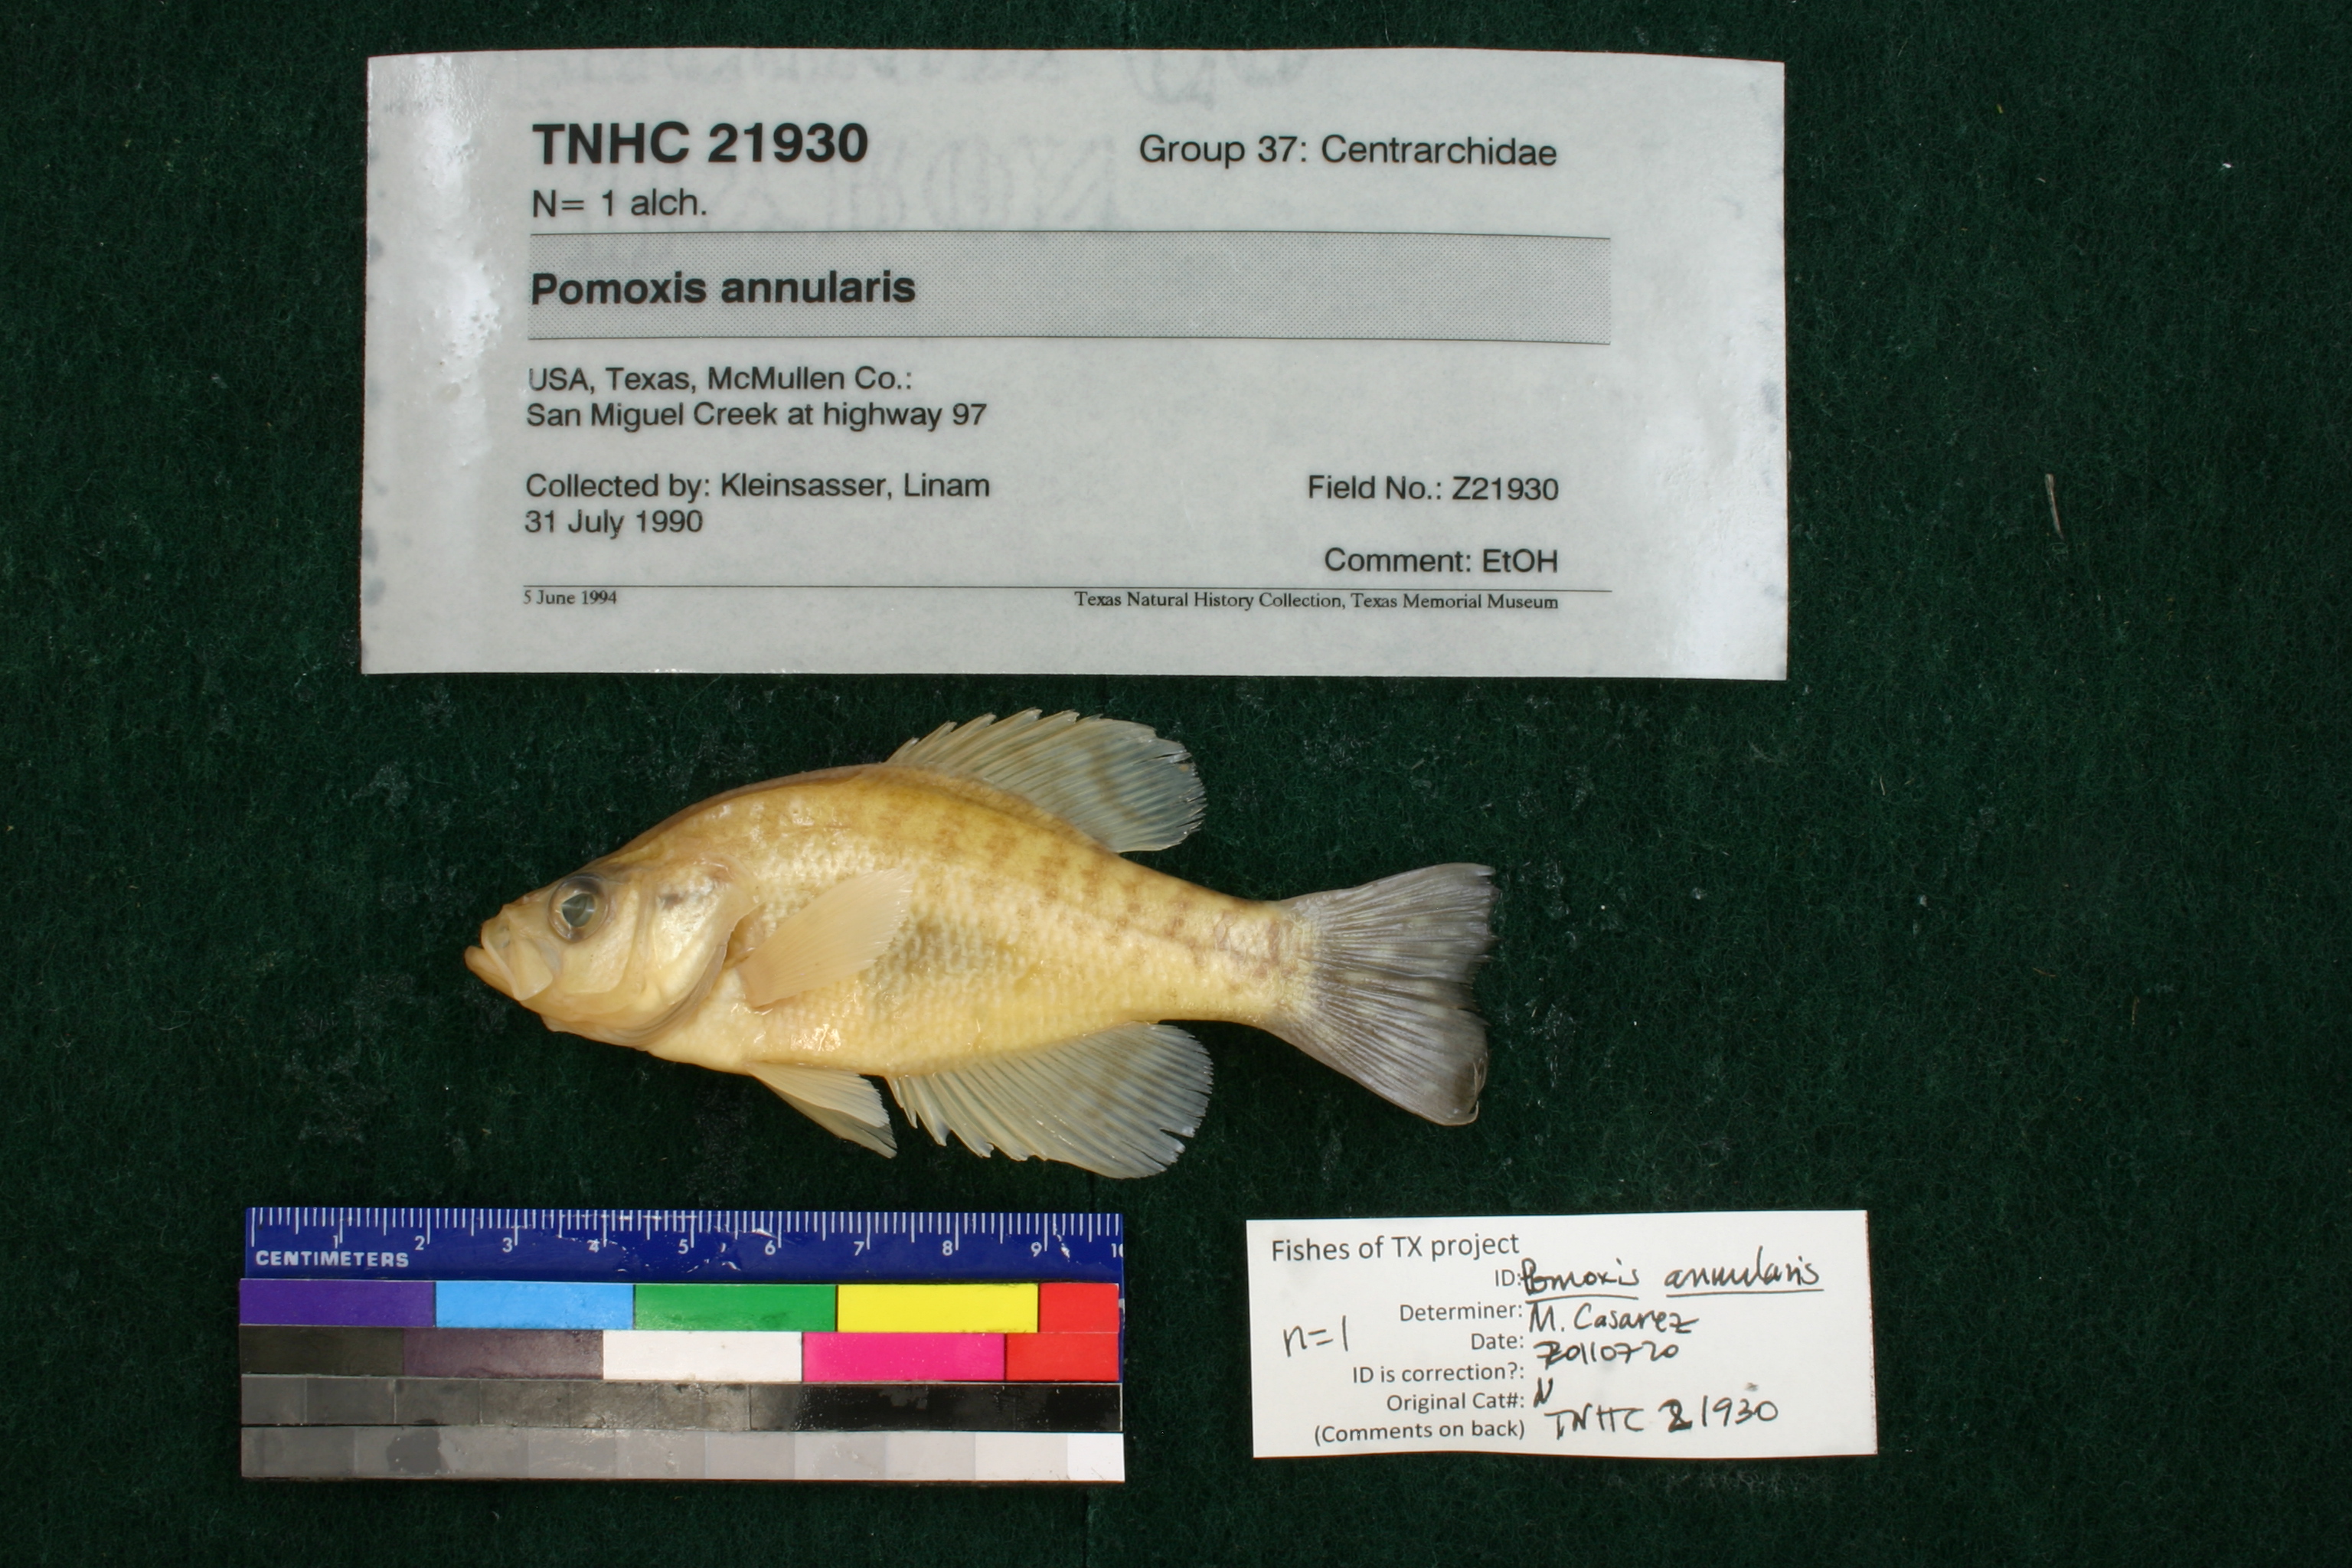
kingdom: Animalia
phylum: Chordata
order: Perciformes
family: Centrarchidae
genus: Pomoxis
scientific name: Pomoxis annularis
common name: White crappie
